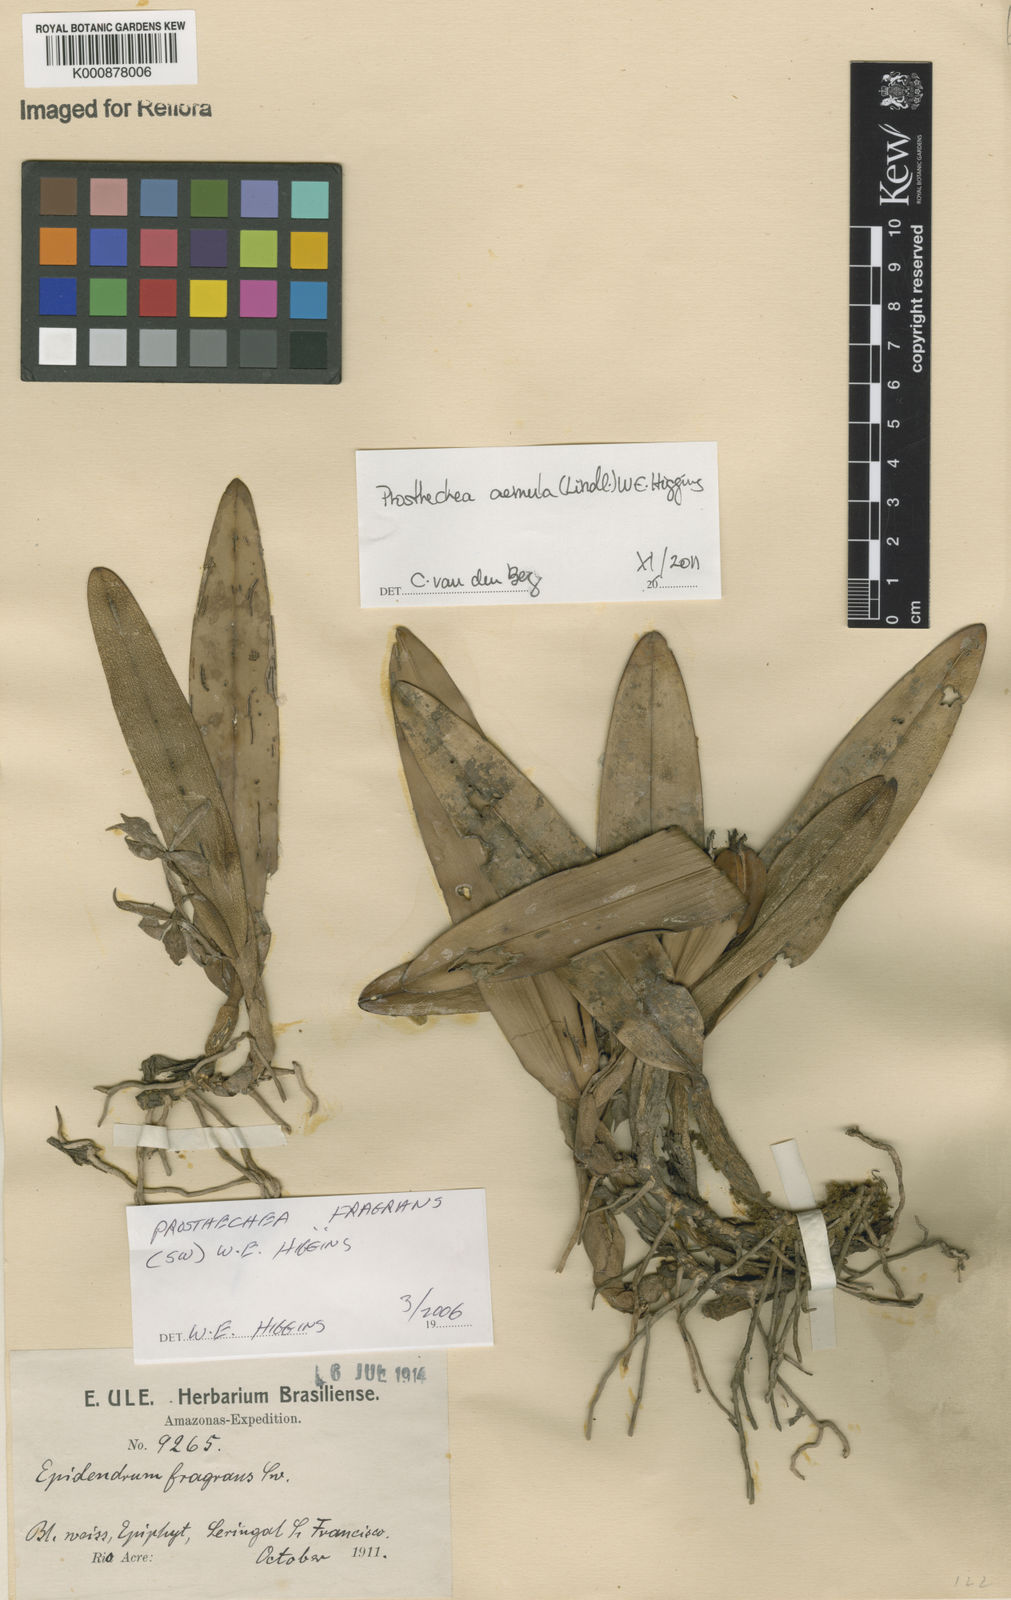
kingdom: Plantae
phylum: Tracheophyta
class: Liliopsida
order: Asparagales
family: Orchidaceae
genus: Prosthechea
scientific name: Prosthechea aemula
